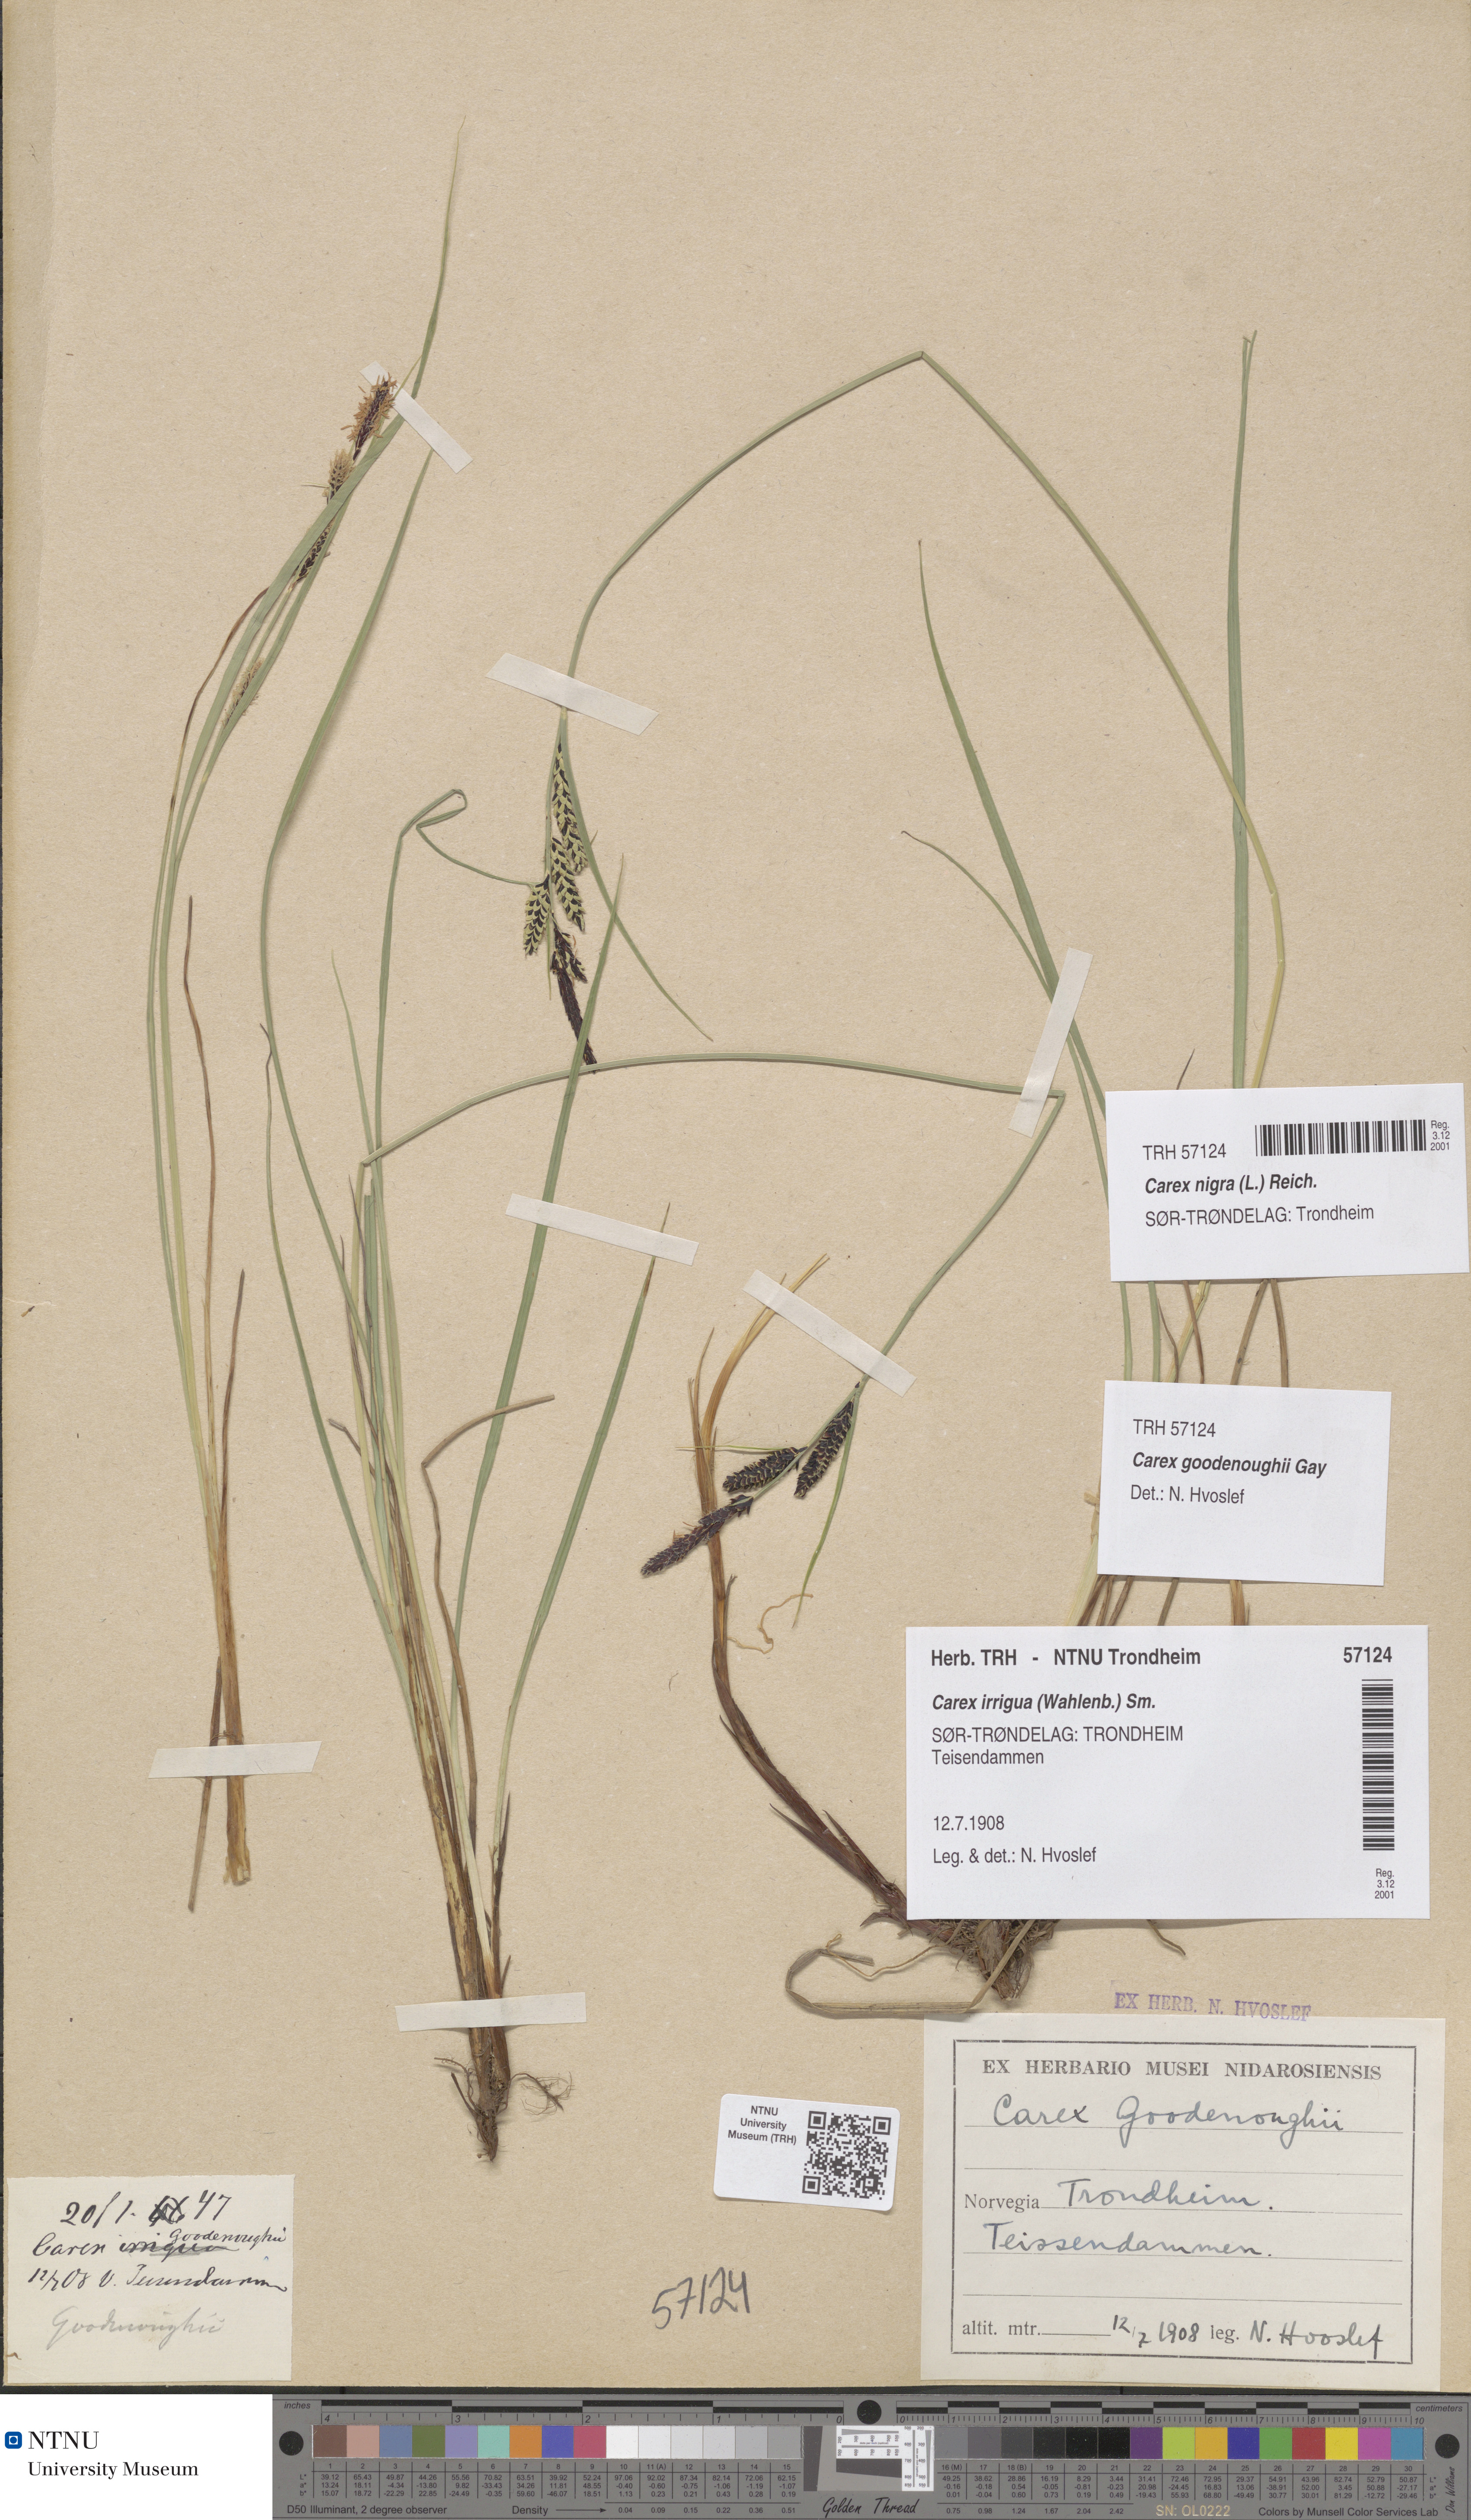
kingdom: Plantae
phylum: Tracheophyta
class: Liliopsida
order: Poales
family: Cyperaceae
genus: Carex
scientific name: Carex nigra
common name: Common sedge
